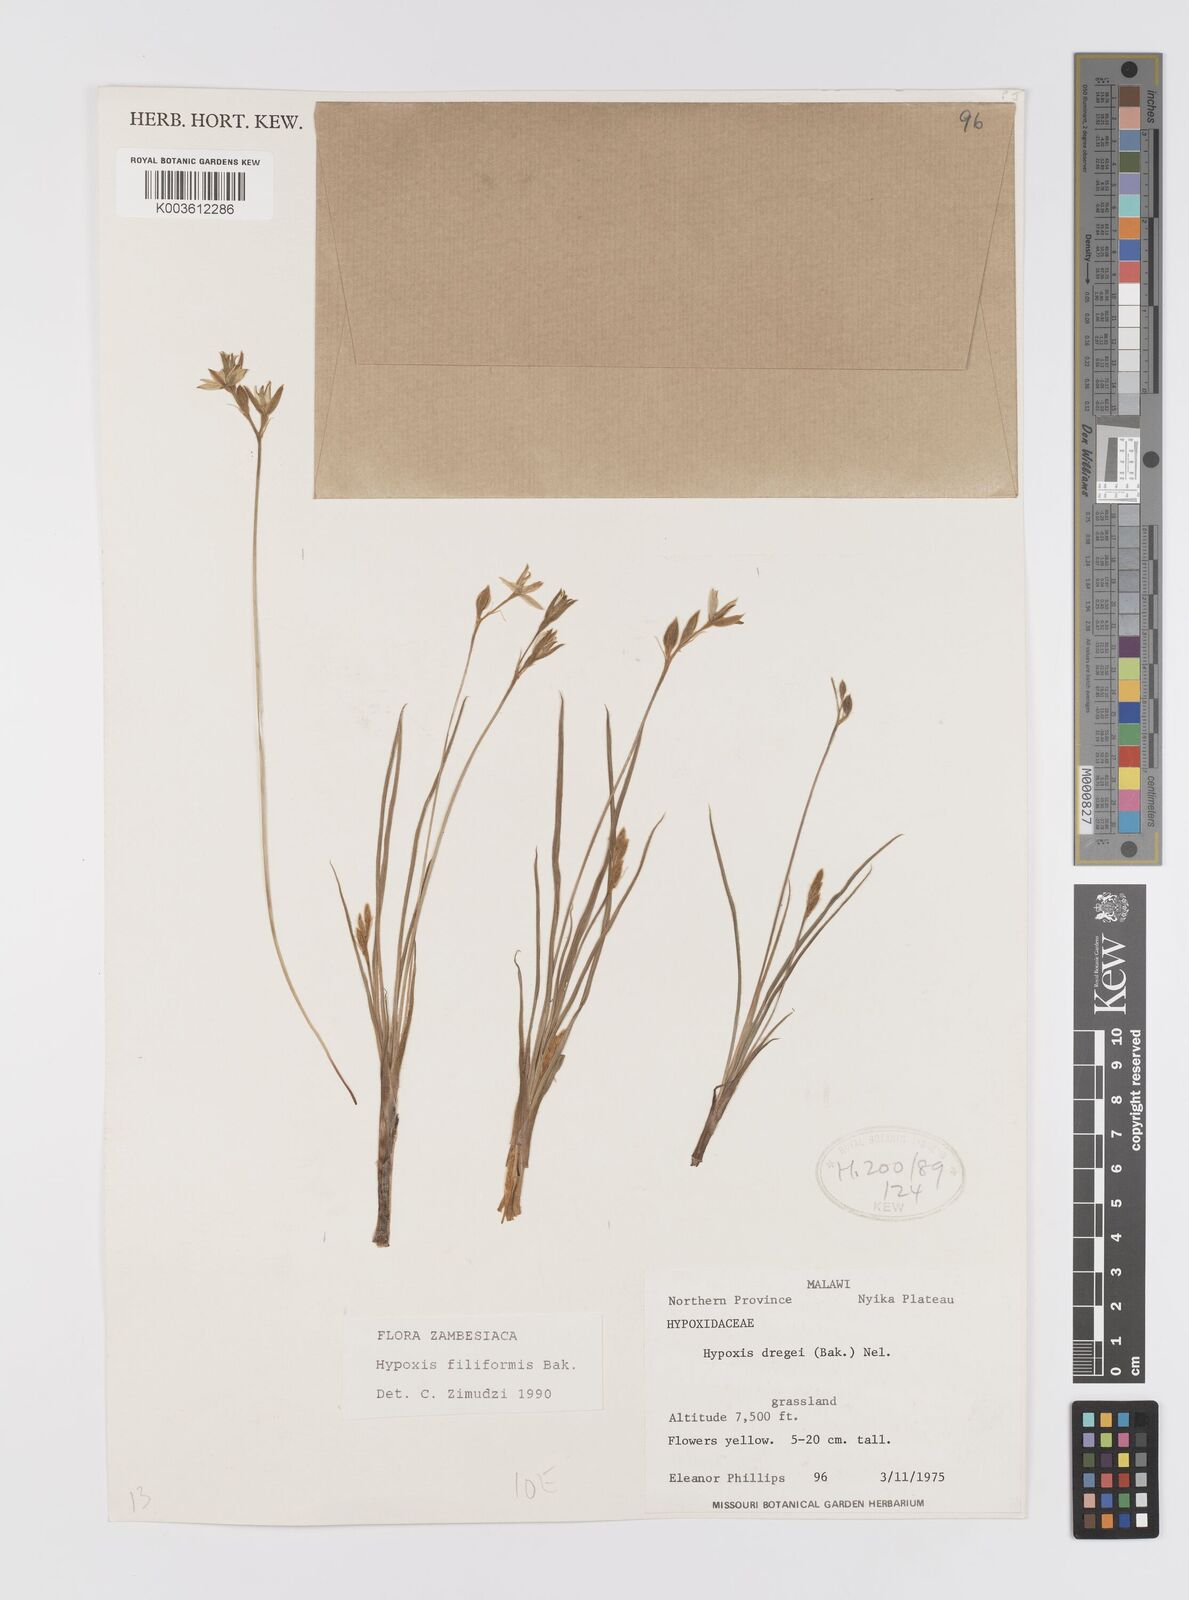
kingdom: Plantae
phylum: Tracheophyta
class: Liliopsida
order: Asparagales
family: Hypoxidaceae
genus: Hypoxis
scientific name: Hypoxis filiformis
